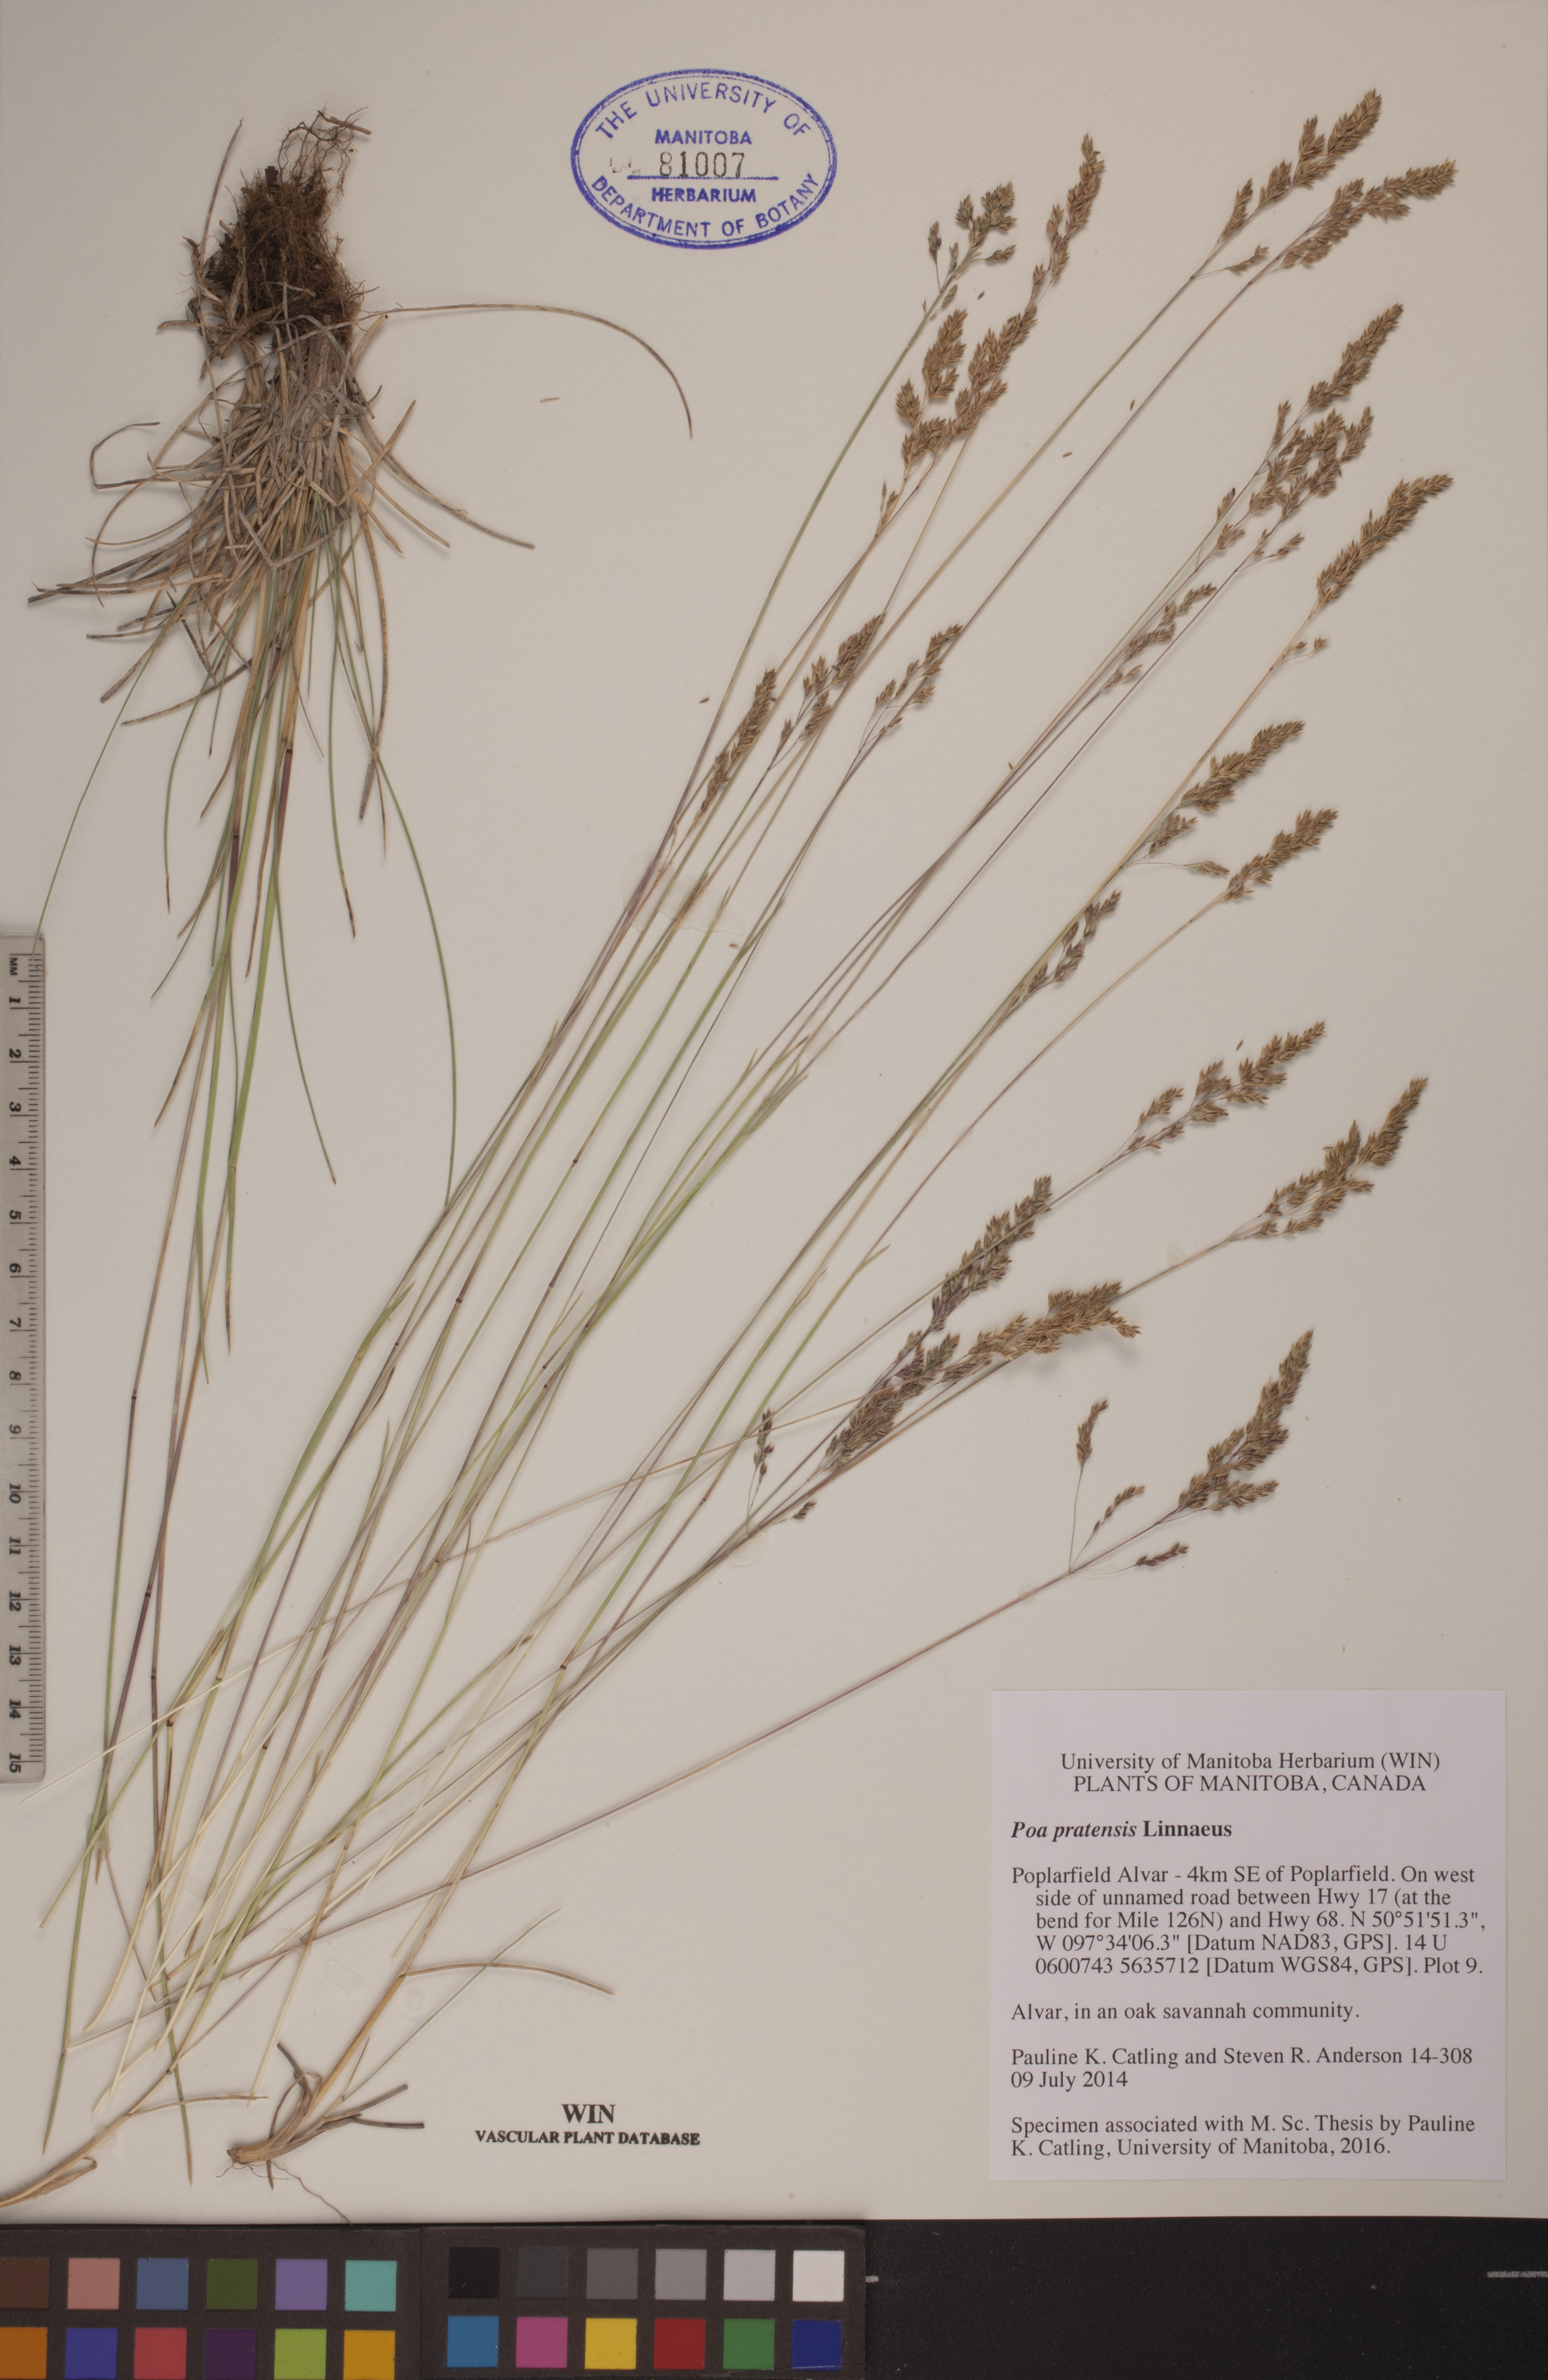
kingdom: Plantae
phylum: Tracheophyta
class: Liliopsida
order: Poales
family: Poaceae
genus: Poa
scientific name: Poa pratensis
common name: Kentucky bluegrass
